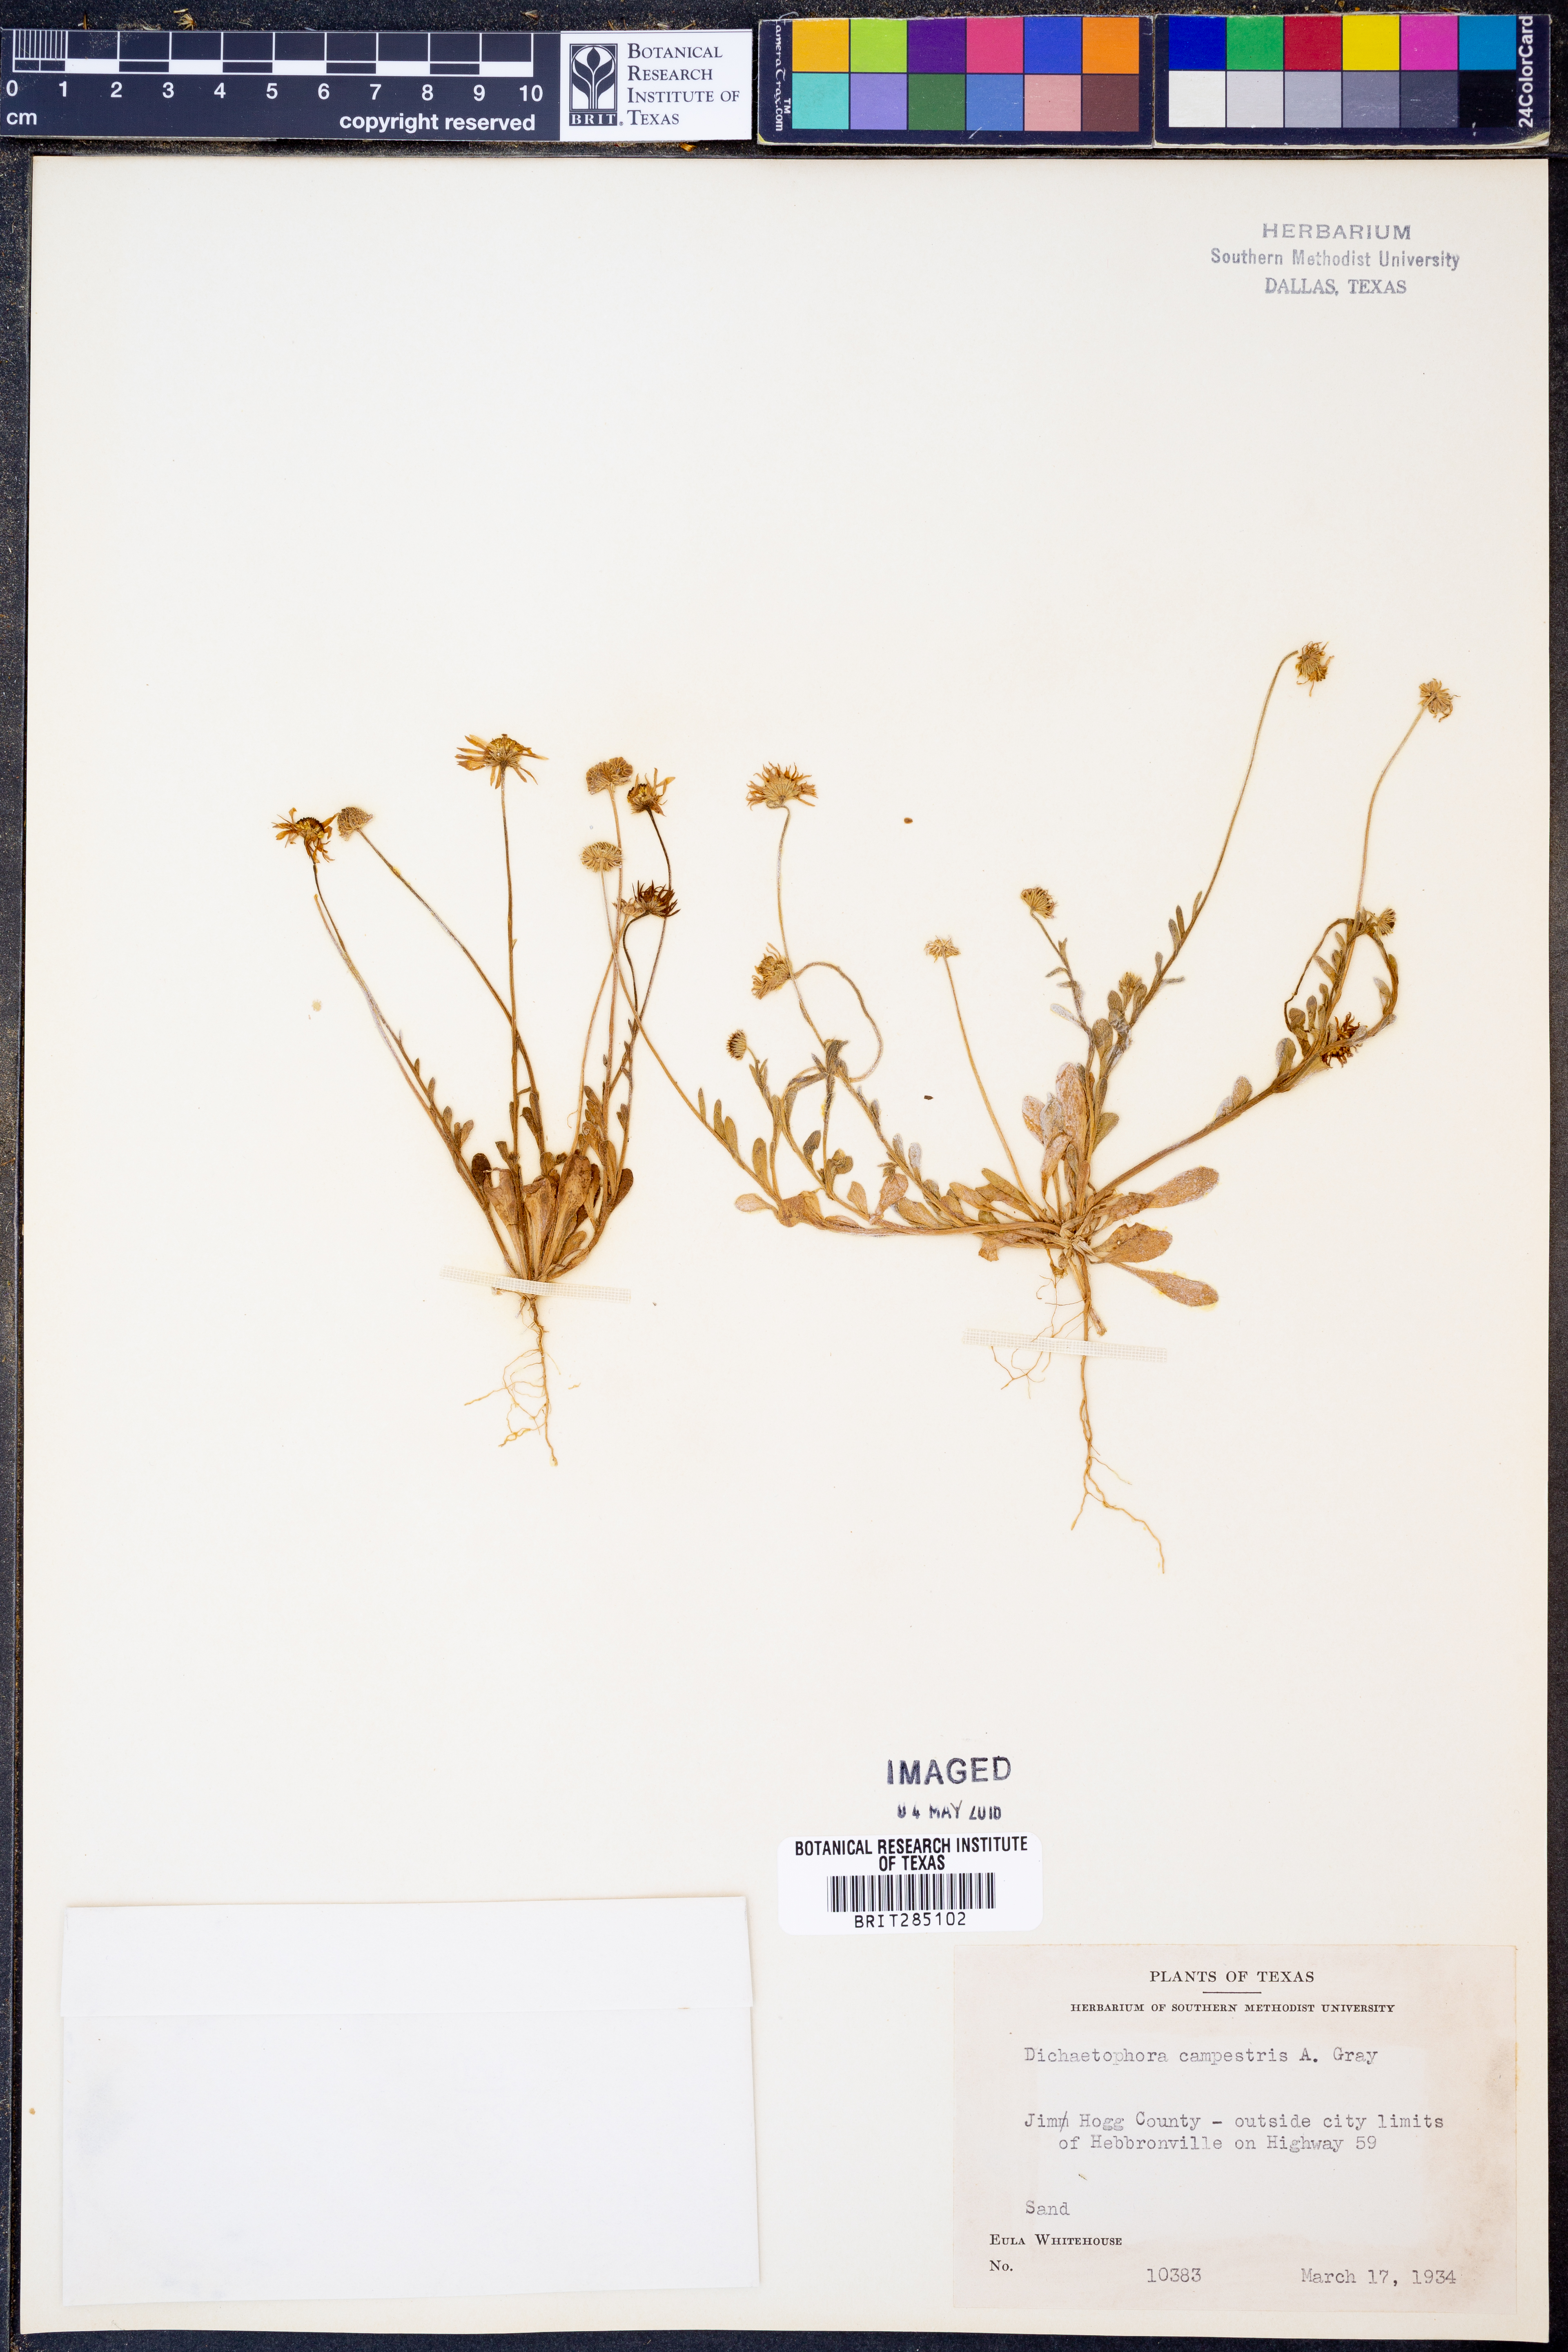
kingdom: Plantae
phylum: Tracheophyta
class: Magnoliopsida
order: Asterales
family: Asteraceae
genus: Dichaetophora
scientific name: Dichaetophora campestris
